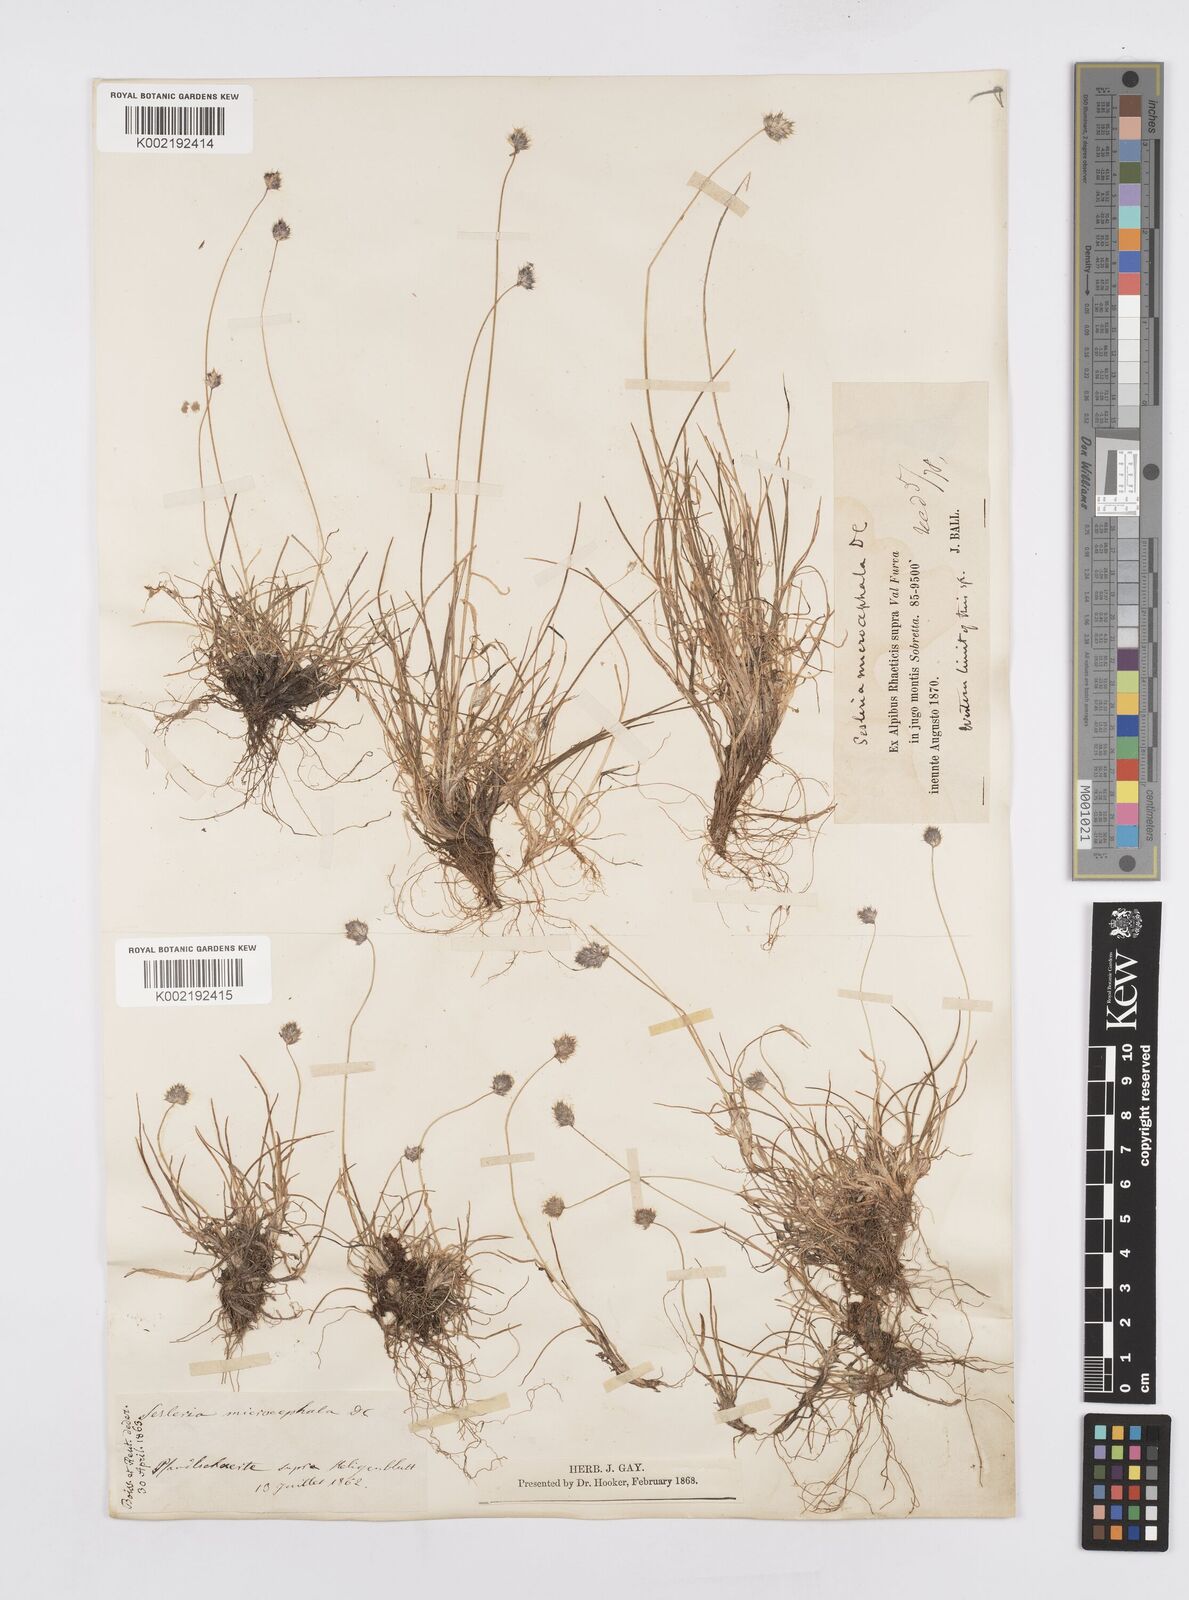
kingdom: Plantae
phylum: Tracheophyta
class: Liliopsida
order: Poales
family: Poaceae
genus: Psilathera
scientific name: Psilathera ovata
